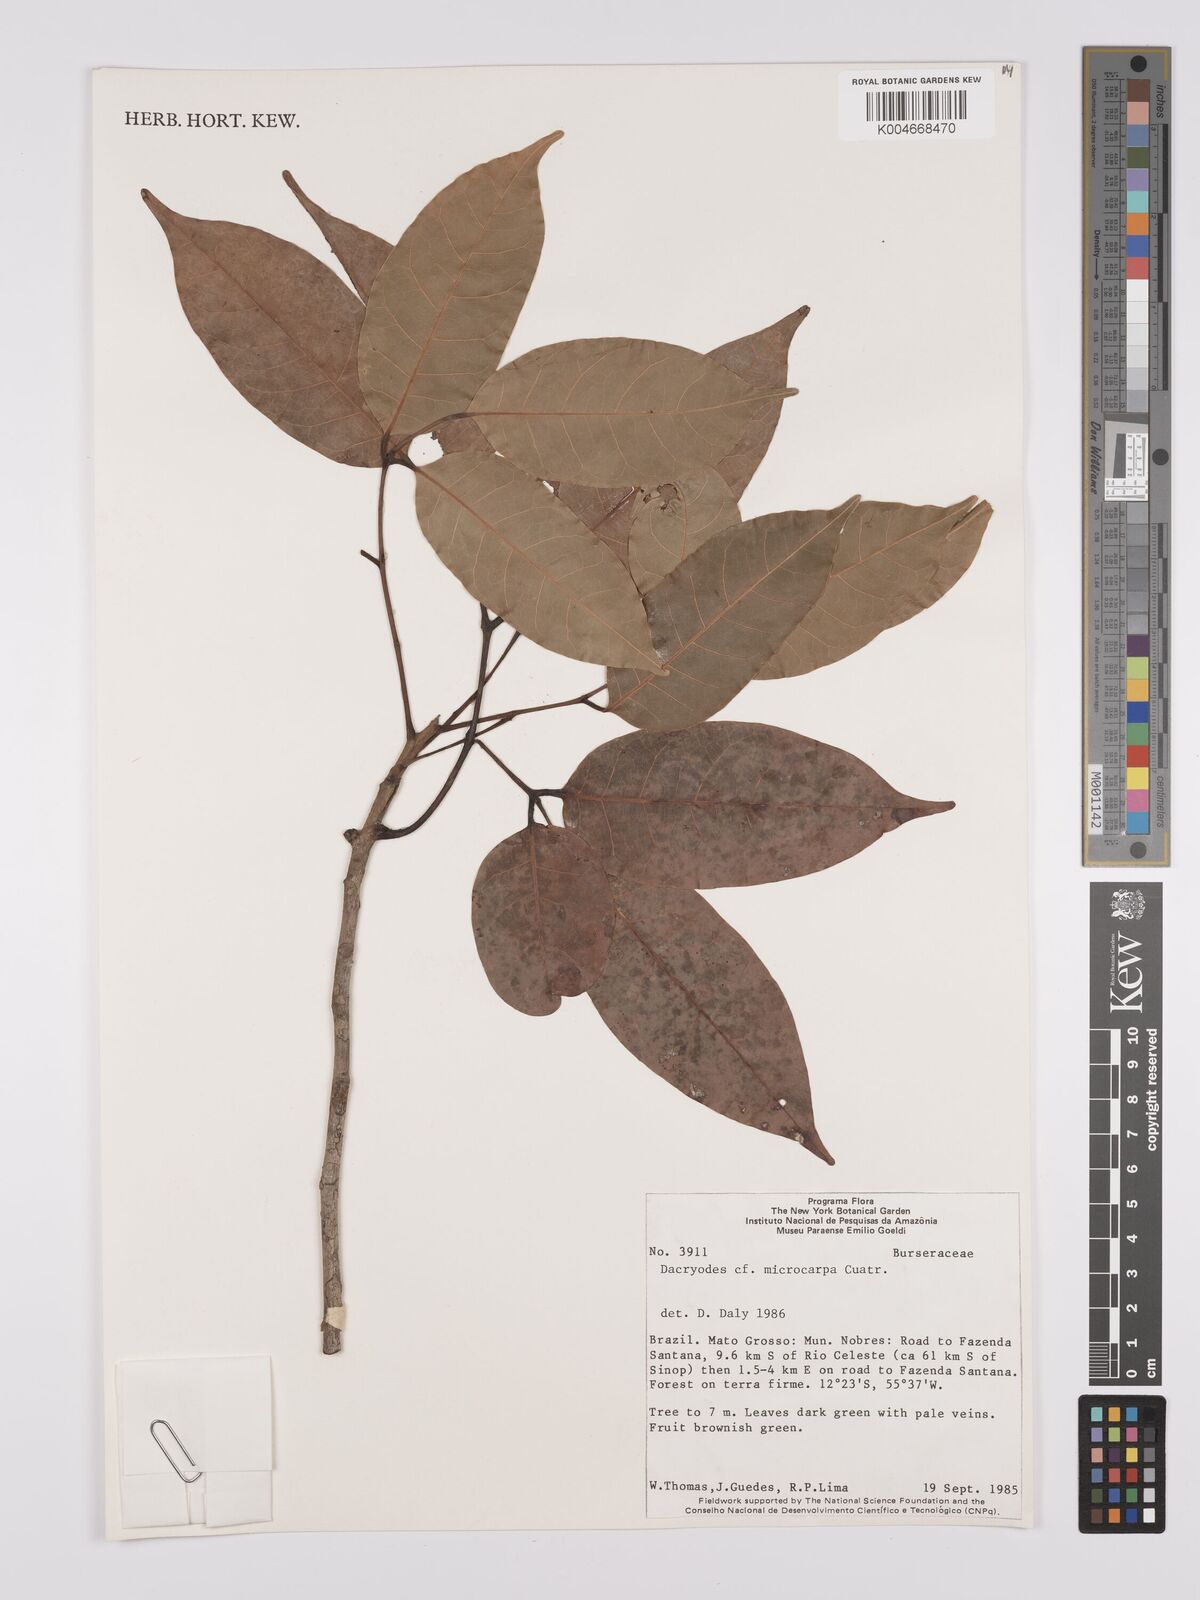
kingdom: Plantae
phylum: Tracheophyta
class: Magnoliopsida
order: Sapindales
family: Burseraceae
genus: Dacryodes
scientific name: Dacryodes microcarpa
